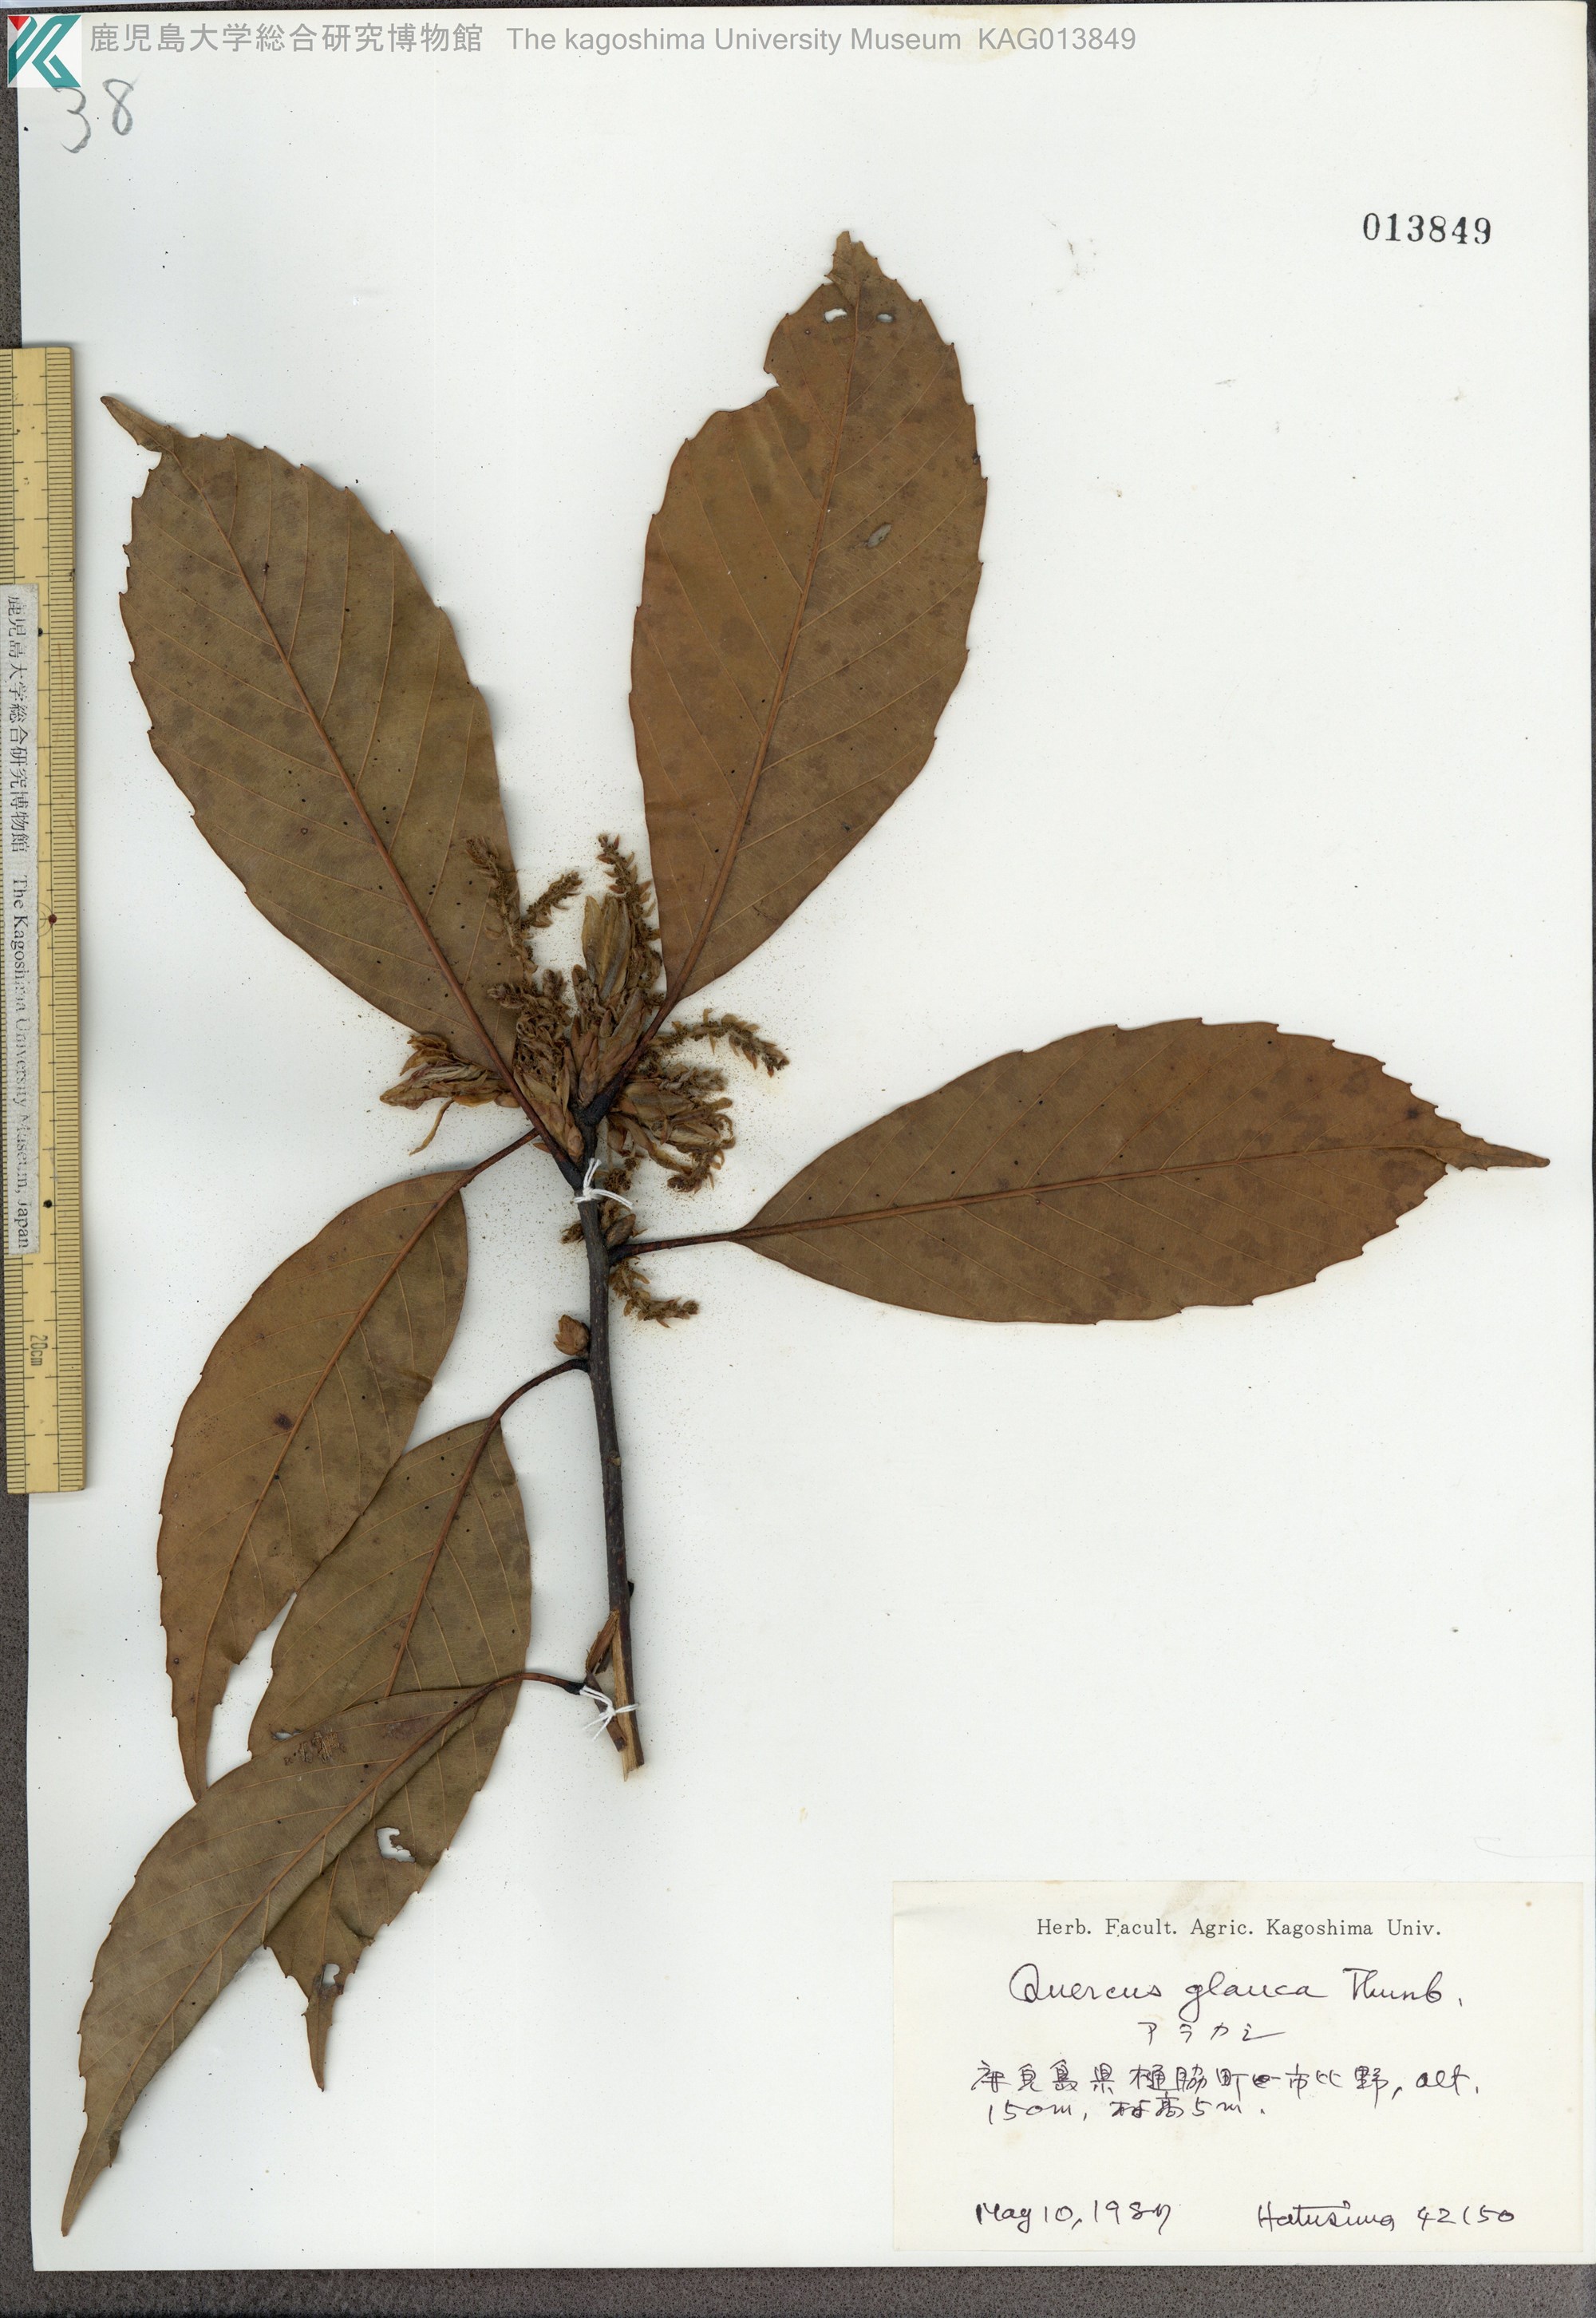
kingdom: Plantae
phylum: Tracheophyta
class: Magnoliopsida
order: Fagales
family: Fagaceae
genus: Quercus
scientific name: Quercus glauca
